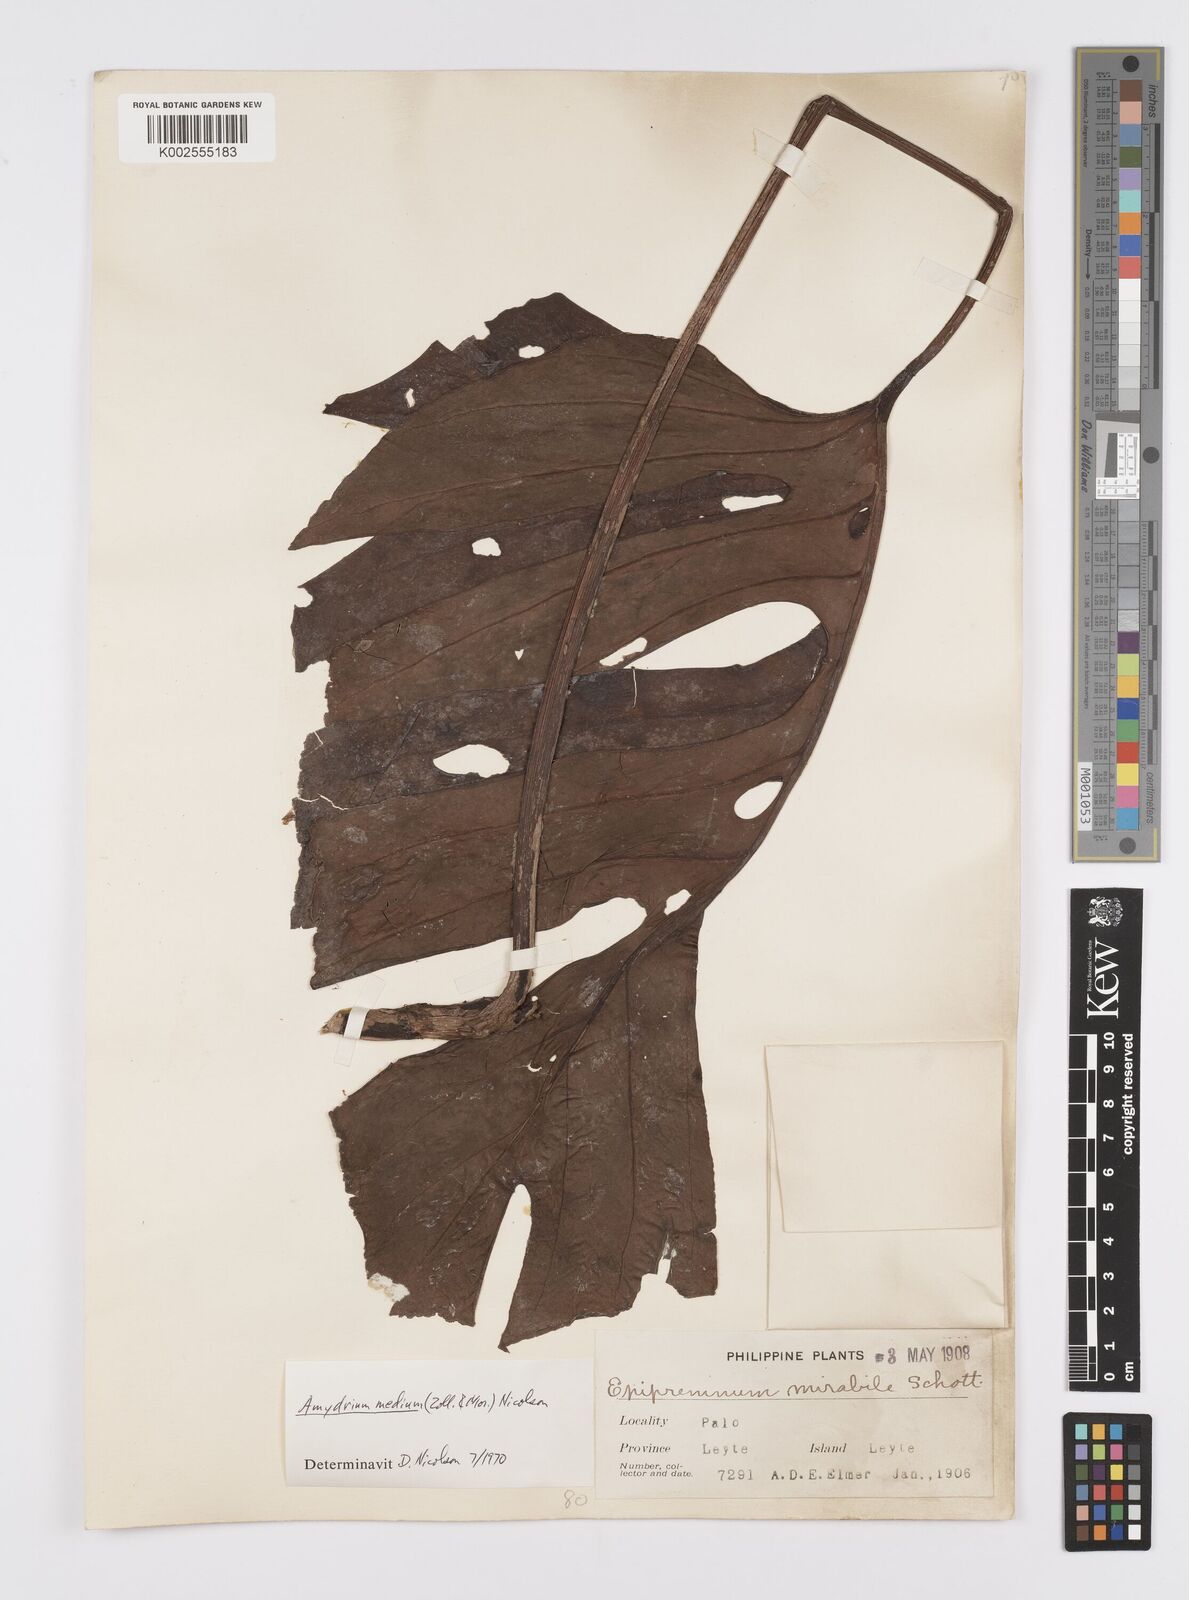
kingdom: Plantae
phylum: Tracheophyta
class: Liliopsida
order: Alismatales
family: Araceae
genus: Amydrium
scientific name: Amydrium medium
